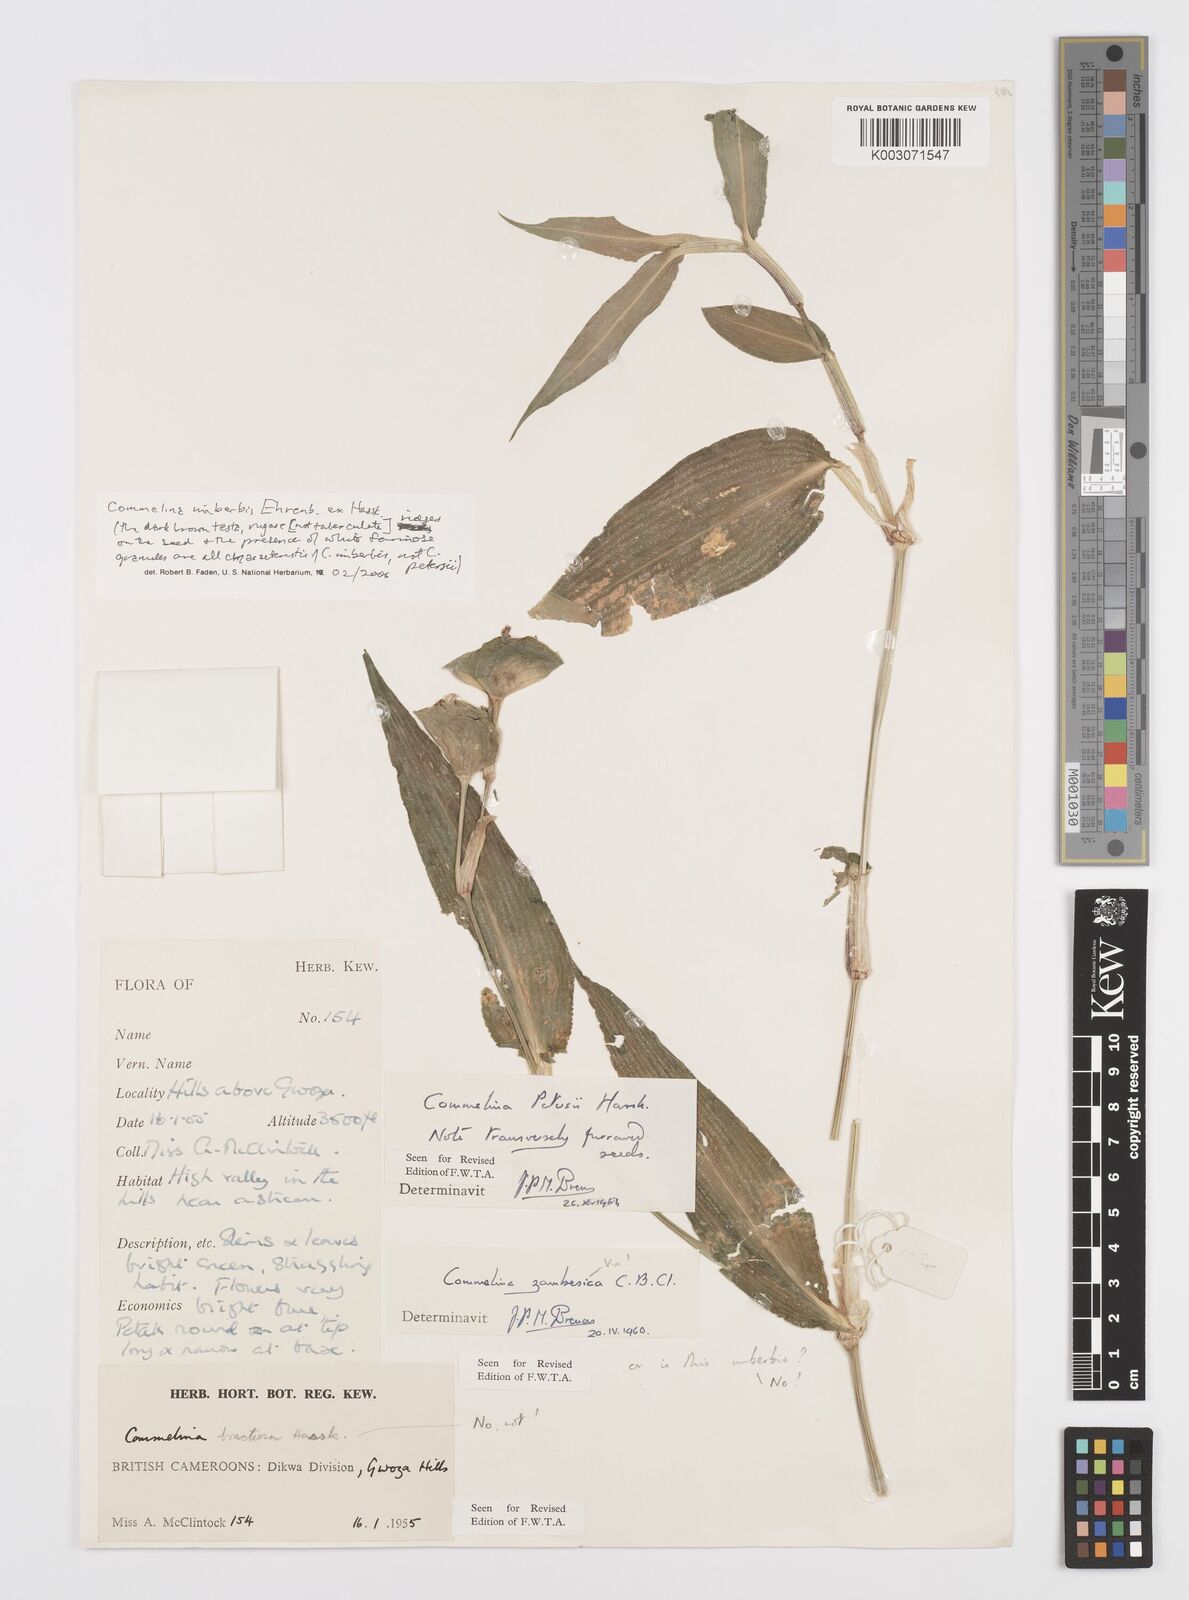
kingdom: Plantae
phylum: Tracheophyta
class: Liliopsida
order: Commelinales
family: Commelinaceae
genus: Commelina
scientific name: Commelina petersii
